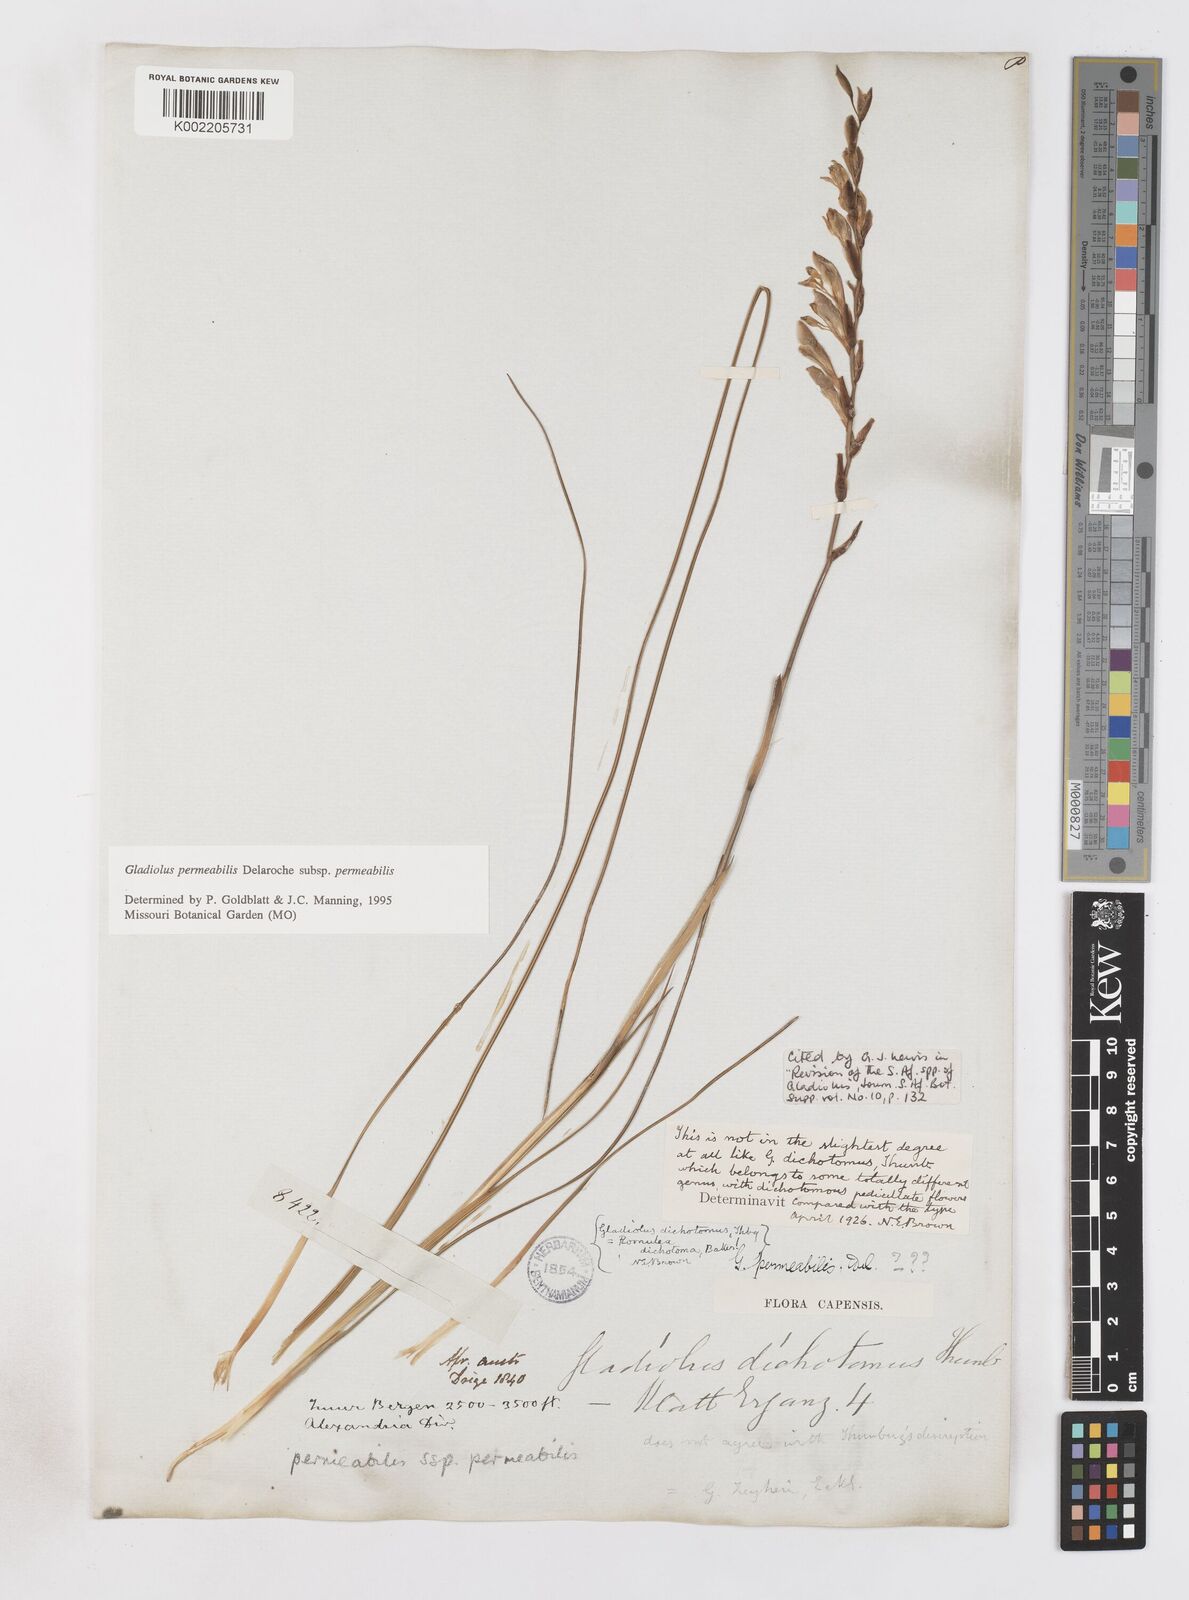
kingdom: Plantae
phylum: Tracheophyta
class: Liliopsida
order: Asparagales
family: Iridaceae
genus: Gladiolus
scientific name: Gladiolus permeabilis
